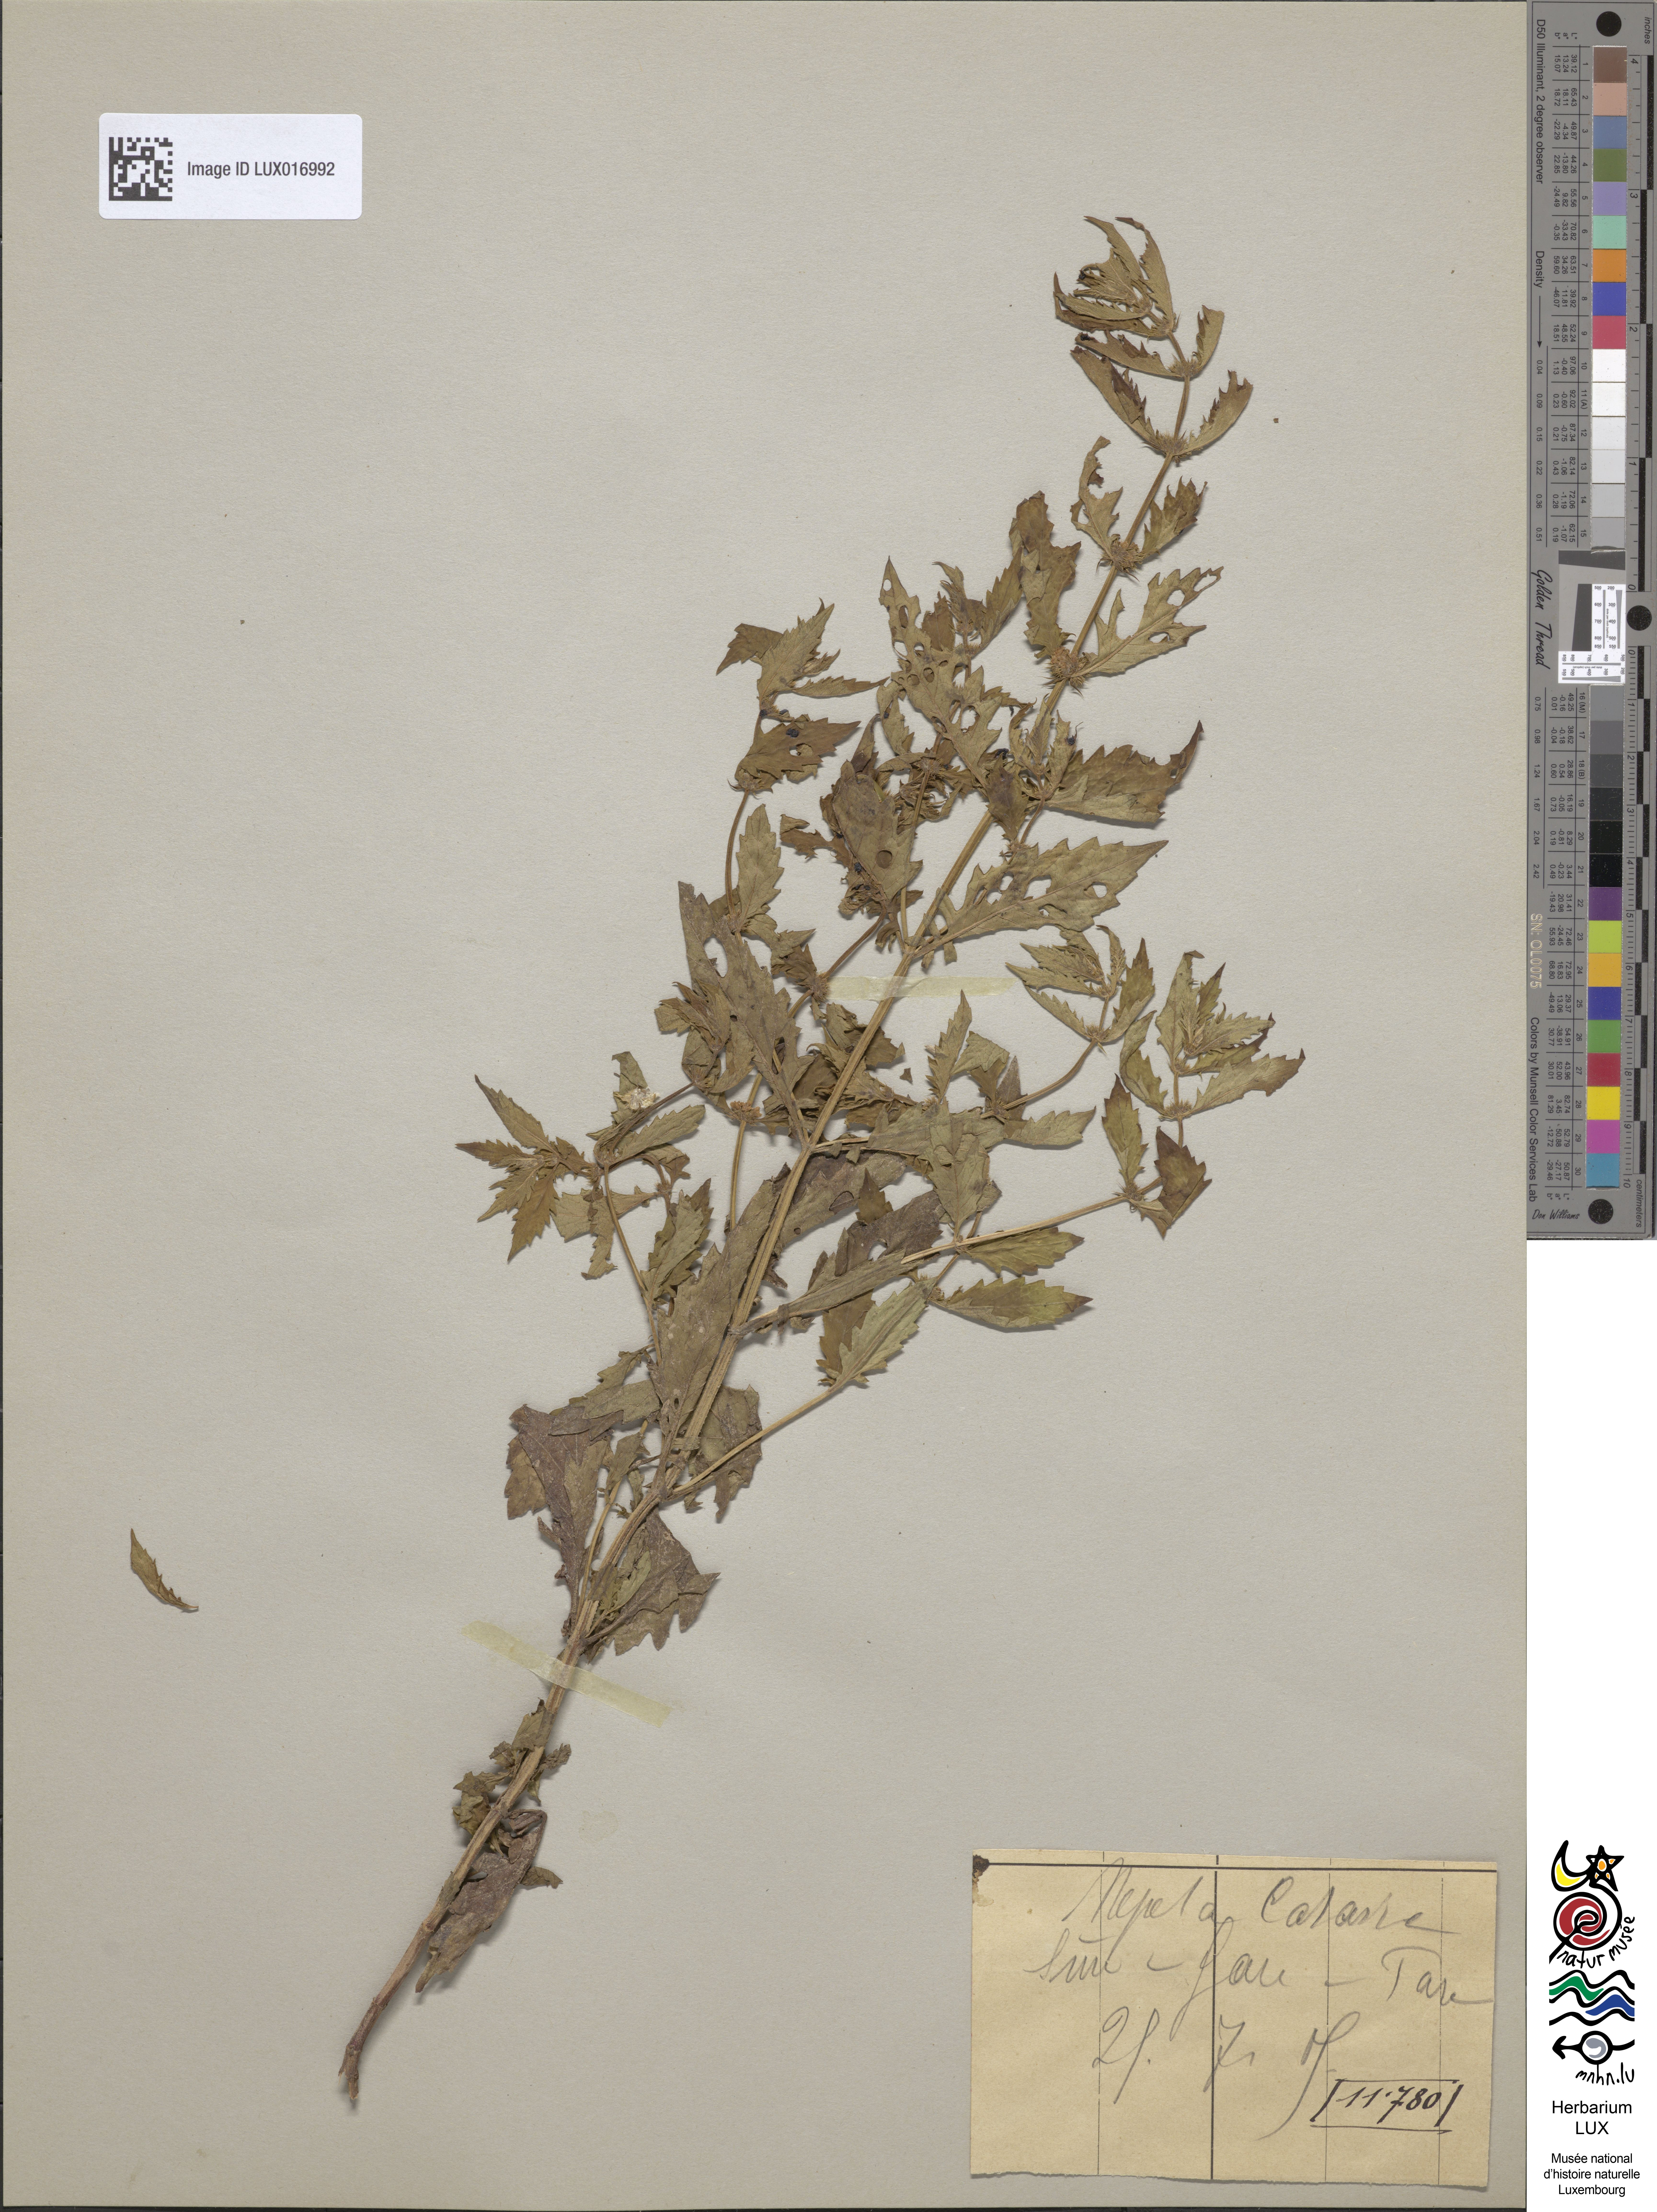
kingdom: Plantae
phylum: Tracheophyta
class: Magnoliopsida
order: Lamiales
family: Lamiaceae
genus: Nepeta
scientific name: Nepeta cataria
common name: Catnip
